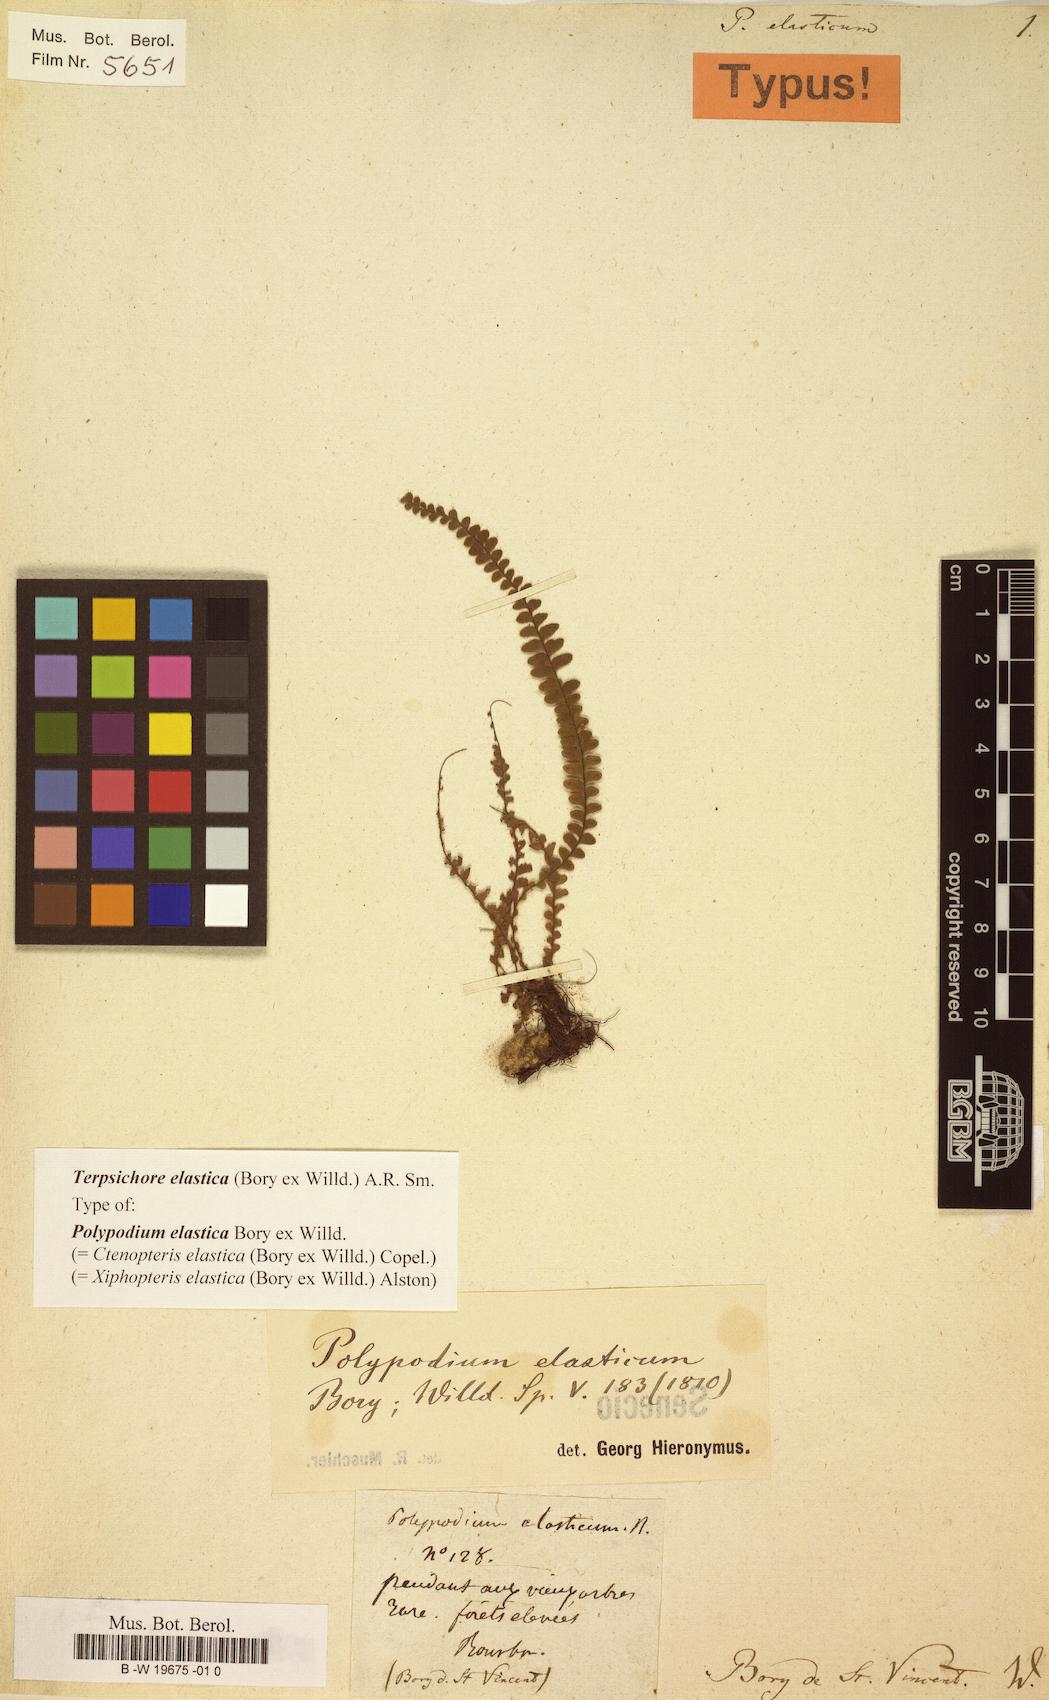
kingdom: Plantae
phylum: Tracheophyta
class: Polypodiopsida
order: Polypodiales
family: Polypodiaceae
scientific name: Polypodiaceae
